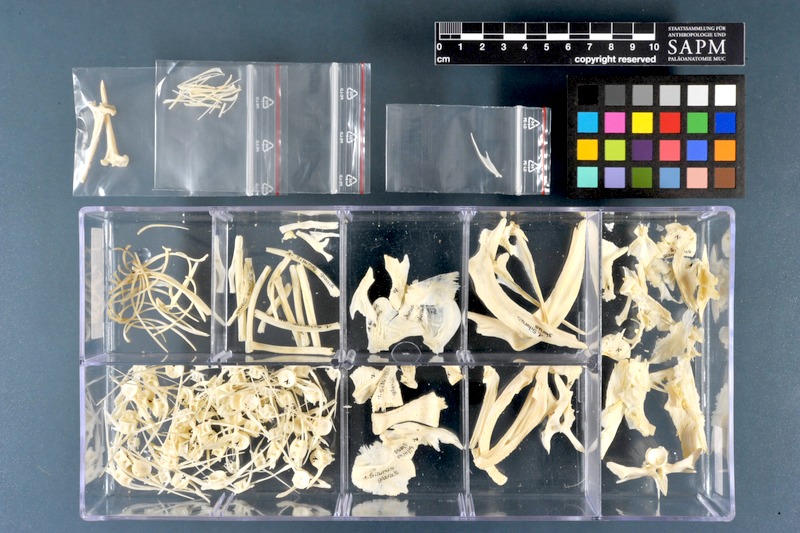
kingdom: Animalia
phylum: Chordata
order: Siluriformes
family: Siluridae
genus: Silurus
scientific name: Silurus glanis
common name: Wels
